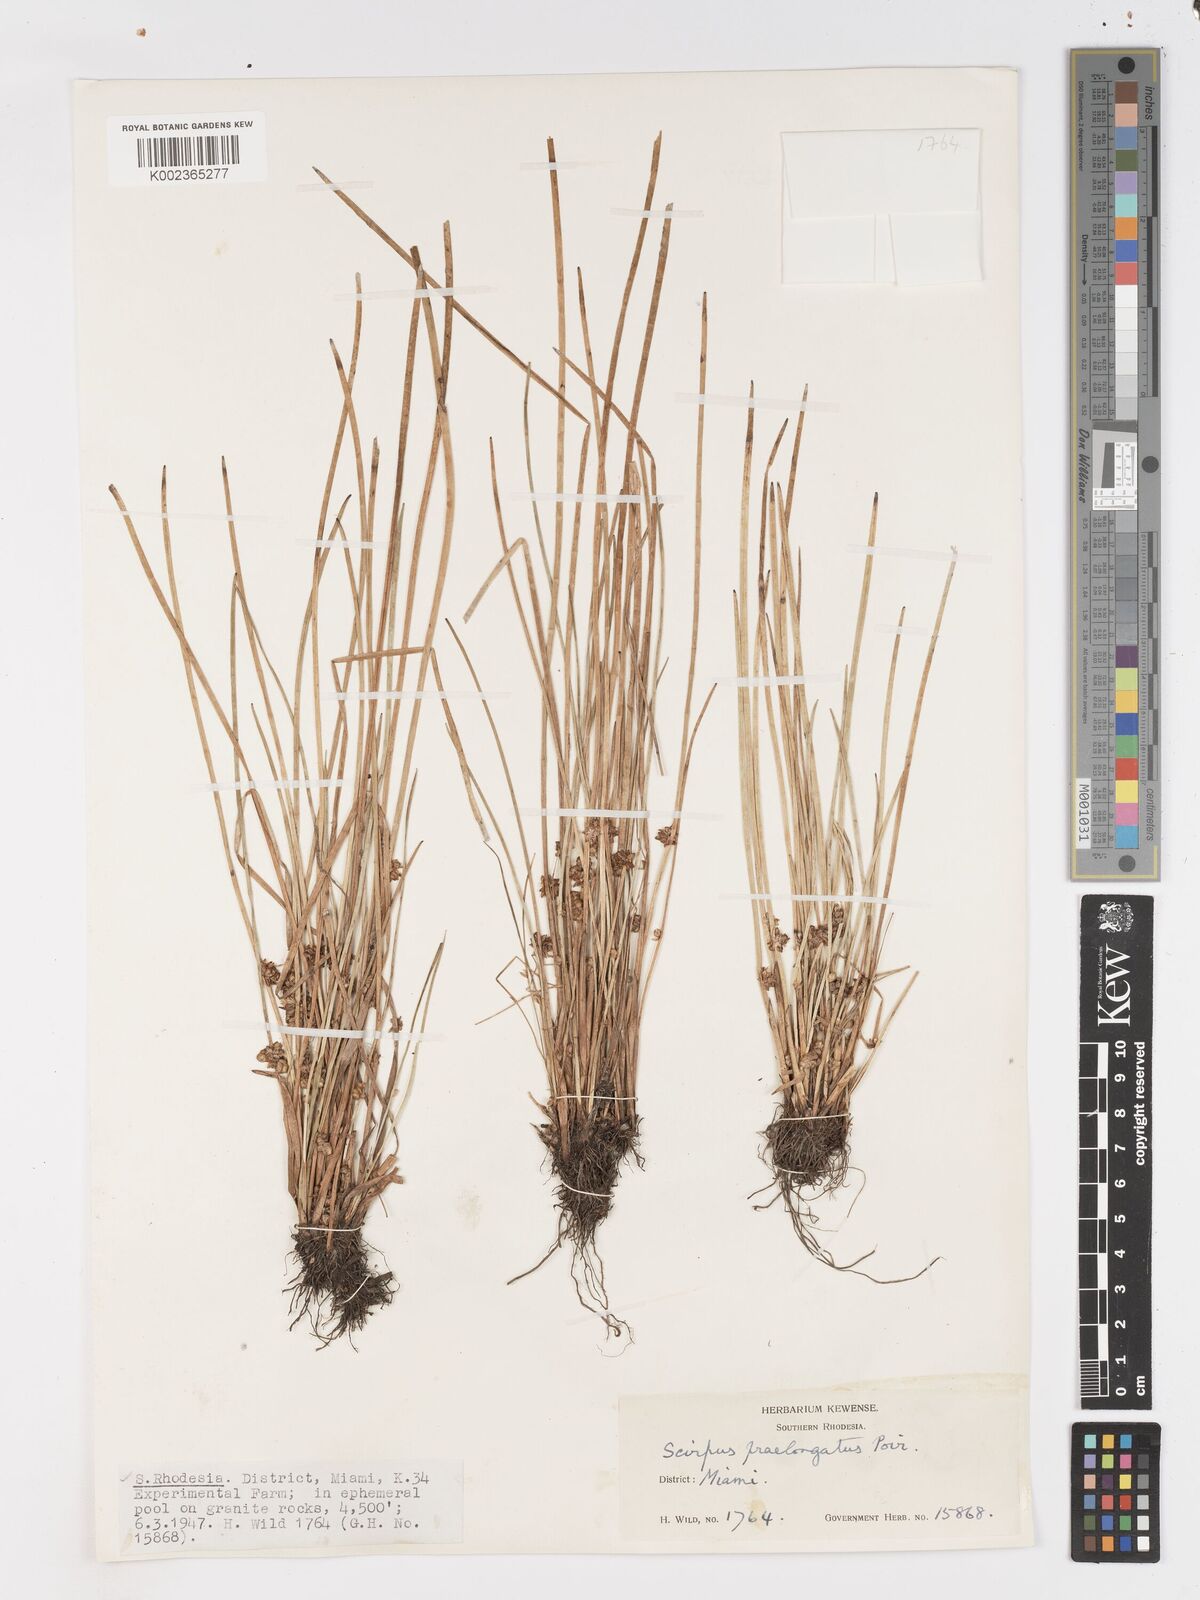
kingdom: Plantae
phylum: Tracheophyta
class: Liliopsida
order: Poales
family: Cyperaceae
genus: Schoenoplectiella
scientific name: Schoenoplectiella senegalensis
